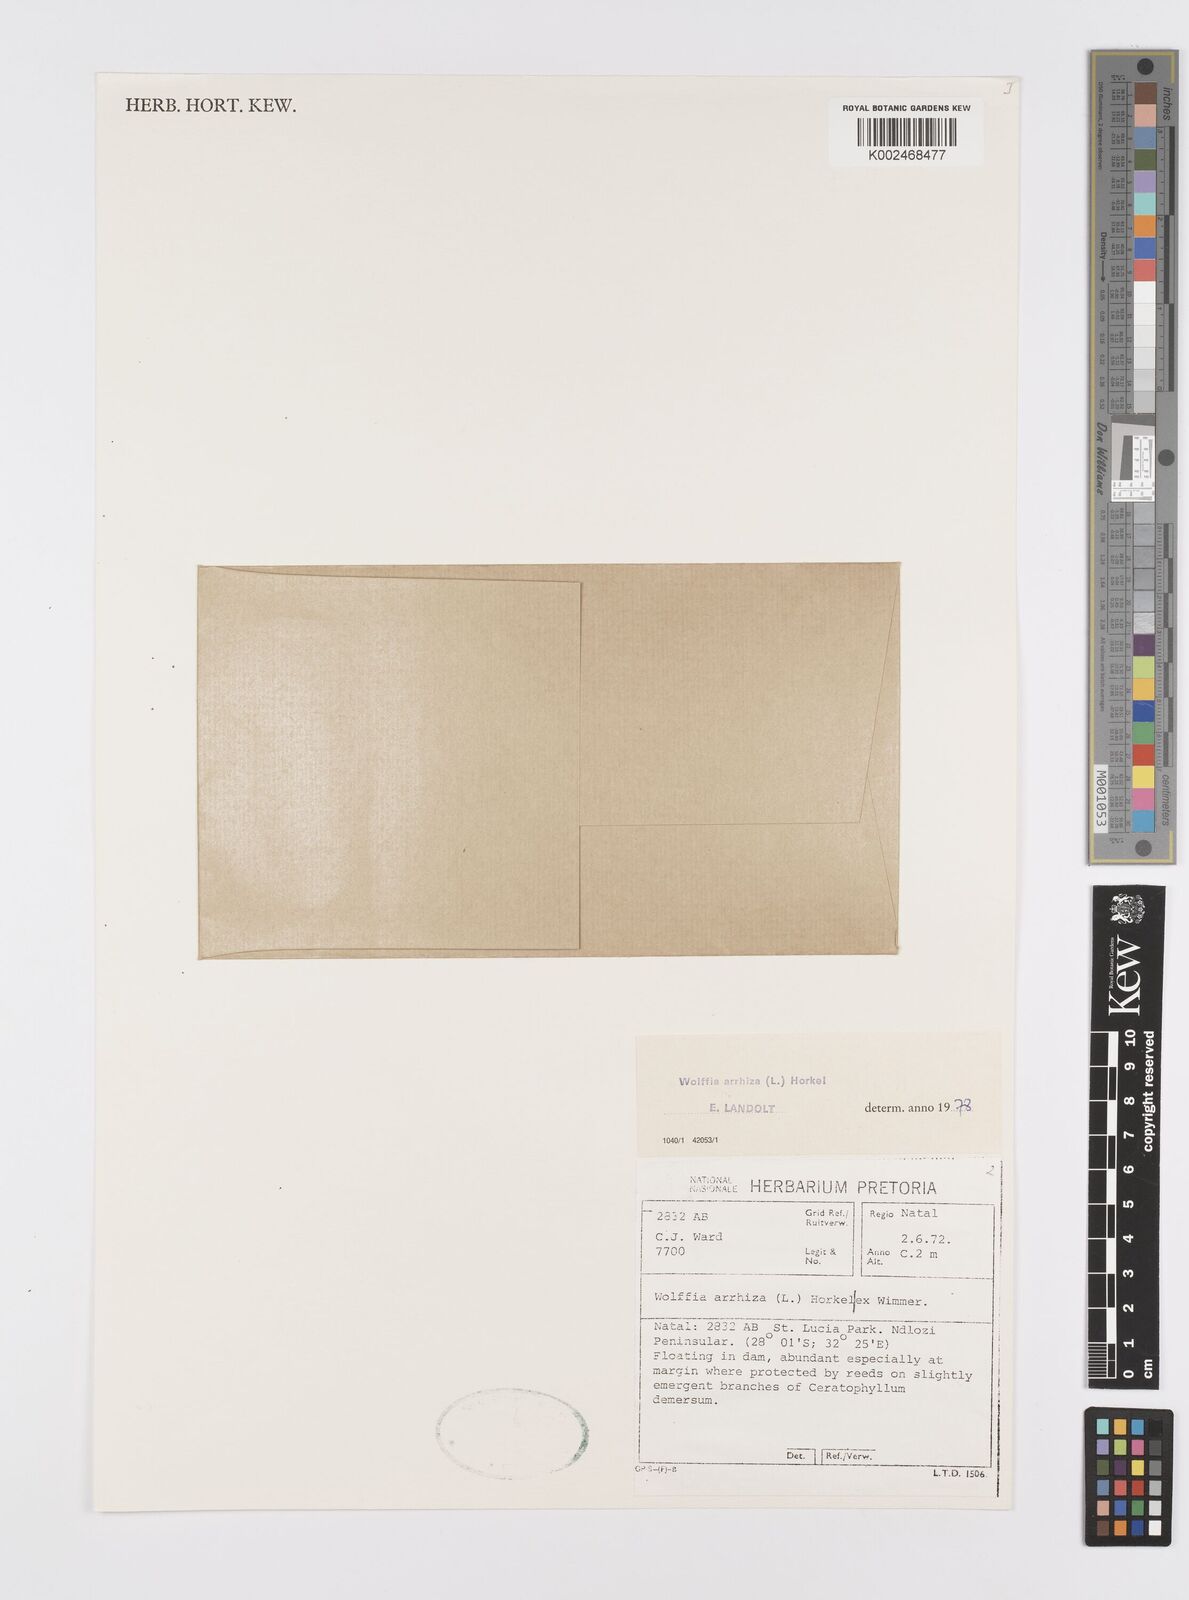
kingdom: Plantae
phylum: Tracheophyta
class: Liliopsida
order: Alismatales
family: Araceae
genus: Wolffia
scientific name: Wolffia arrhiza
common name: Rootless duckweed
